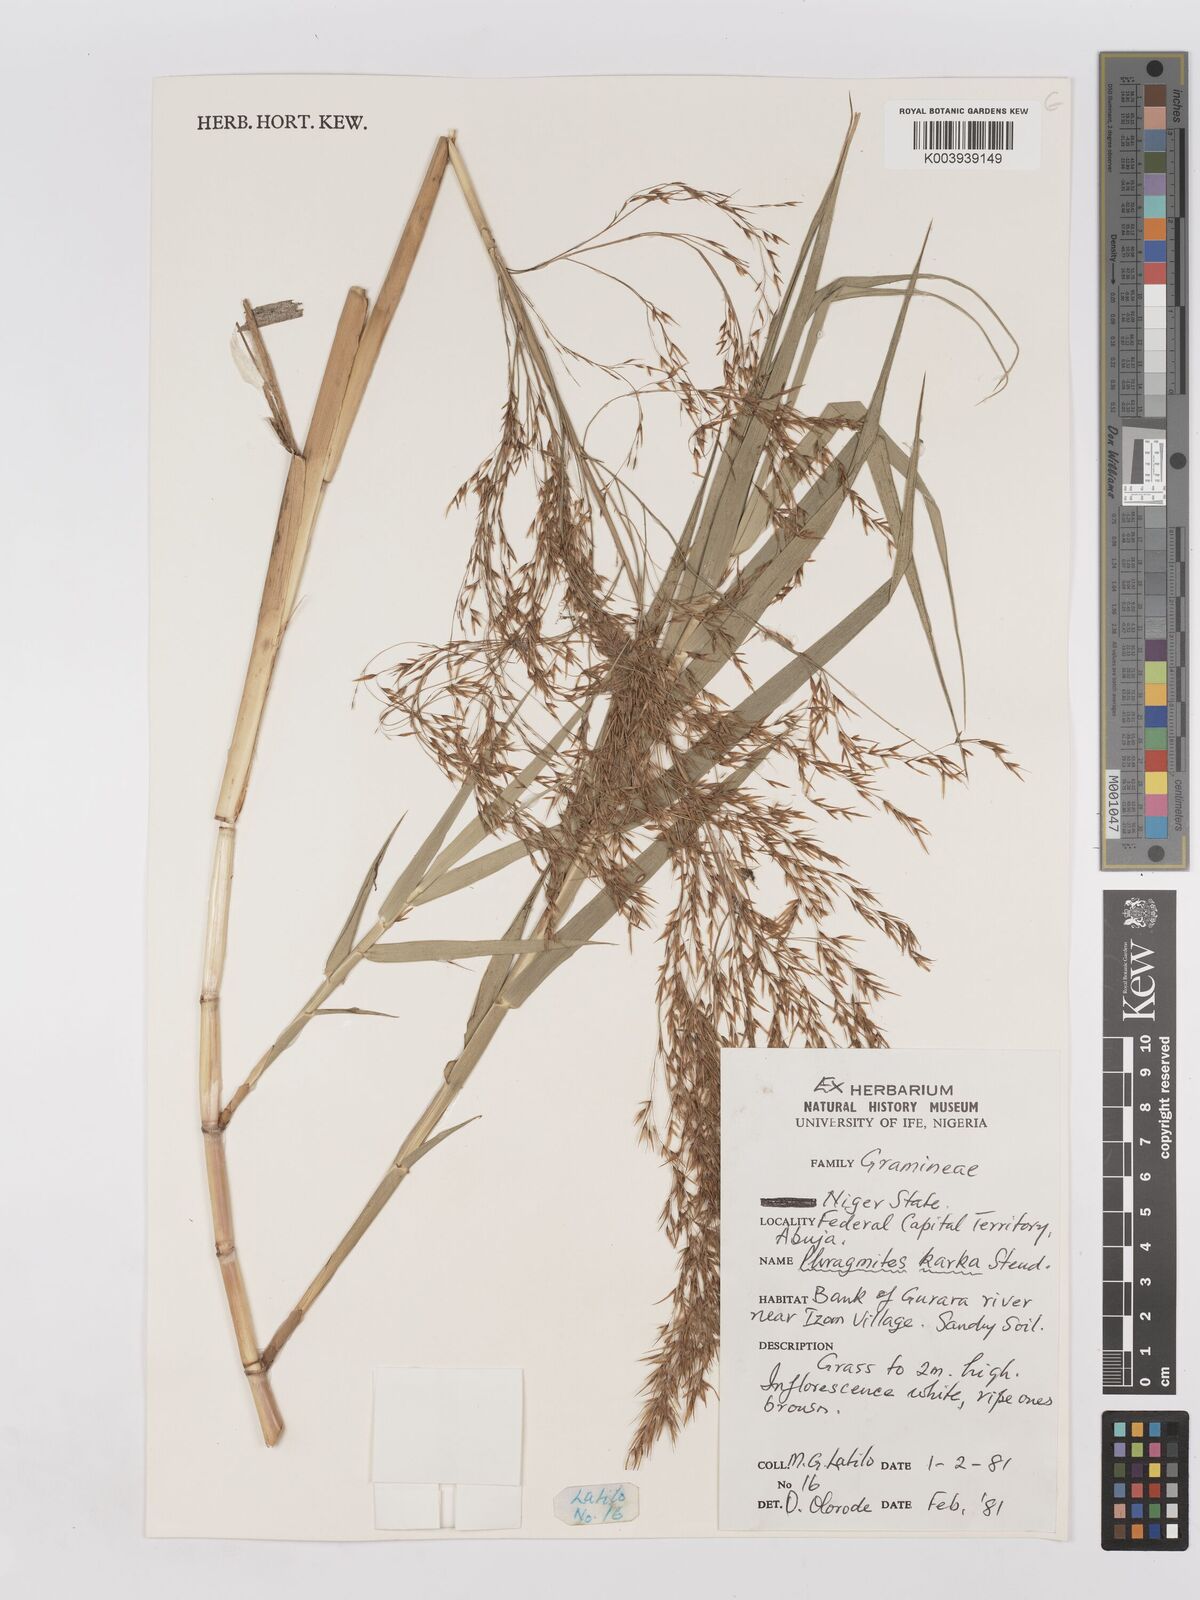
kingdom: Plantae
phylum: Tracheophyta
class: Liliopsida
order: Poales
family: Poaceae
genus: Phragmites
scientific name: Phragmites karka
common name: Tropical reed
